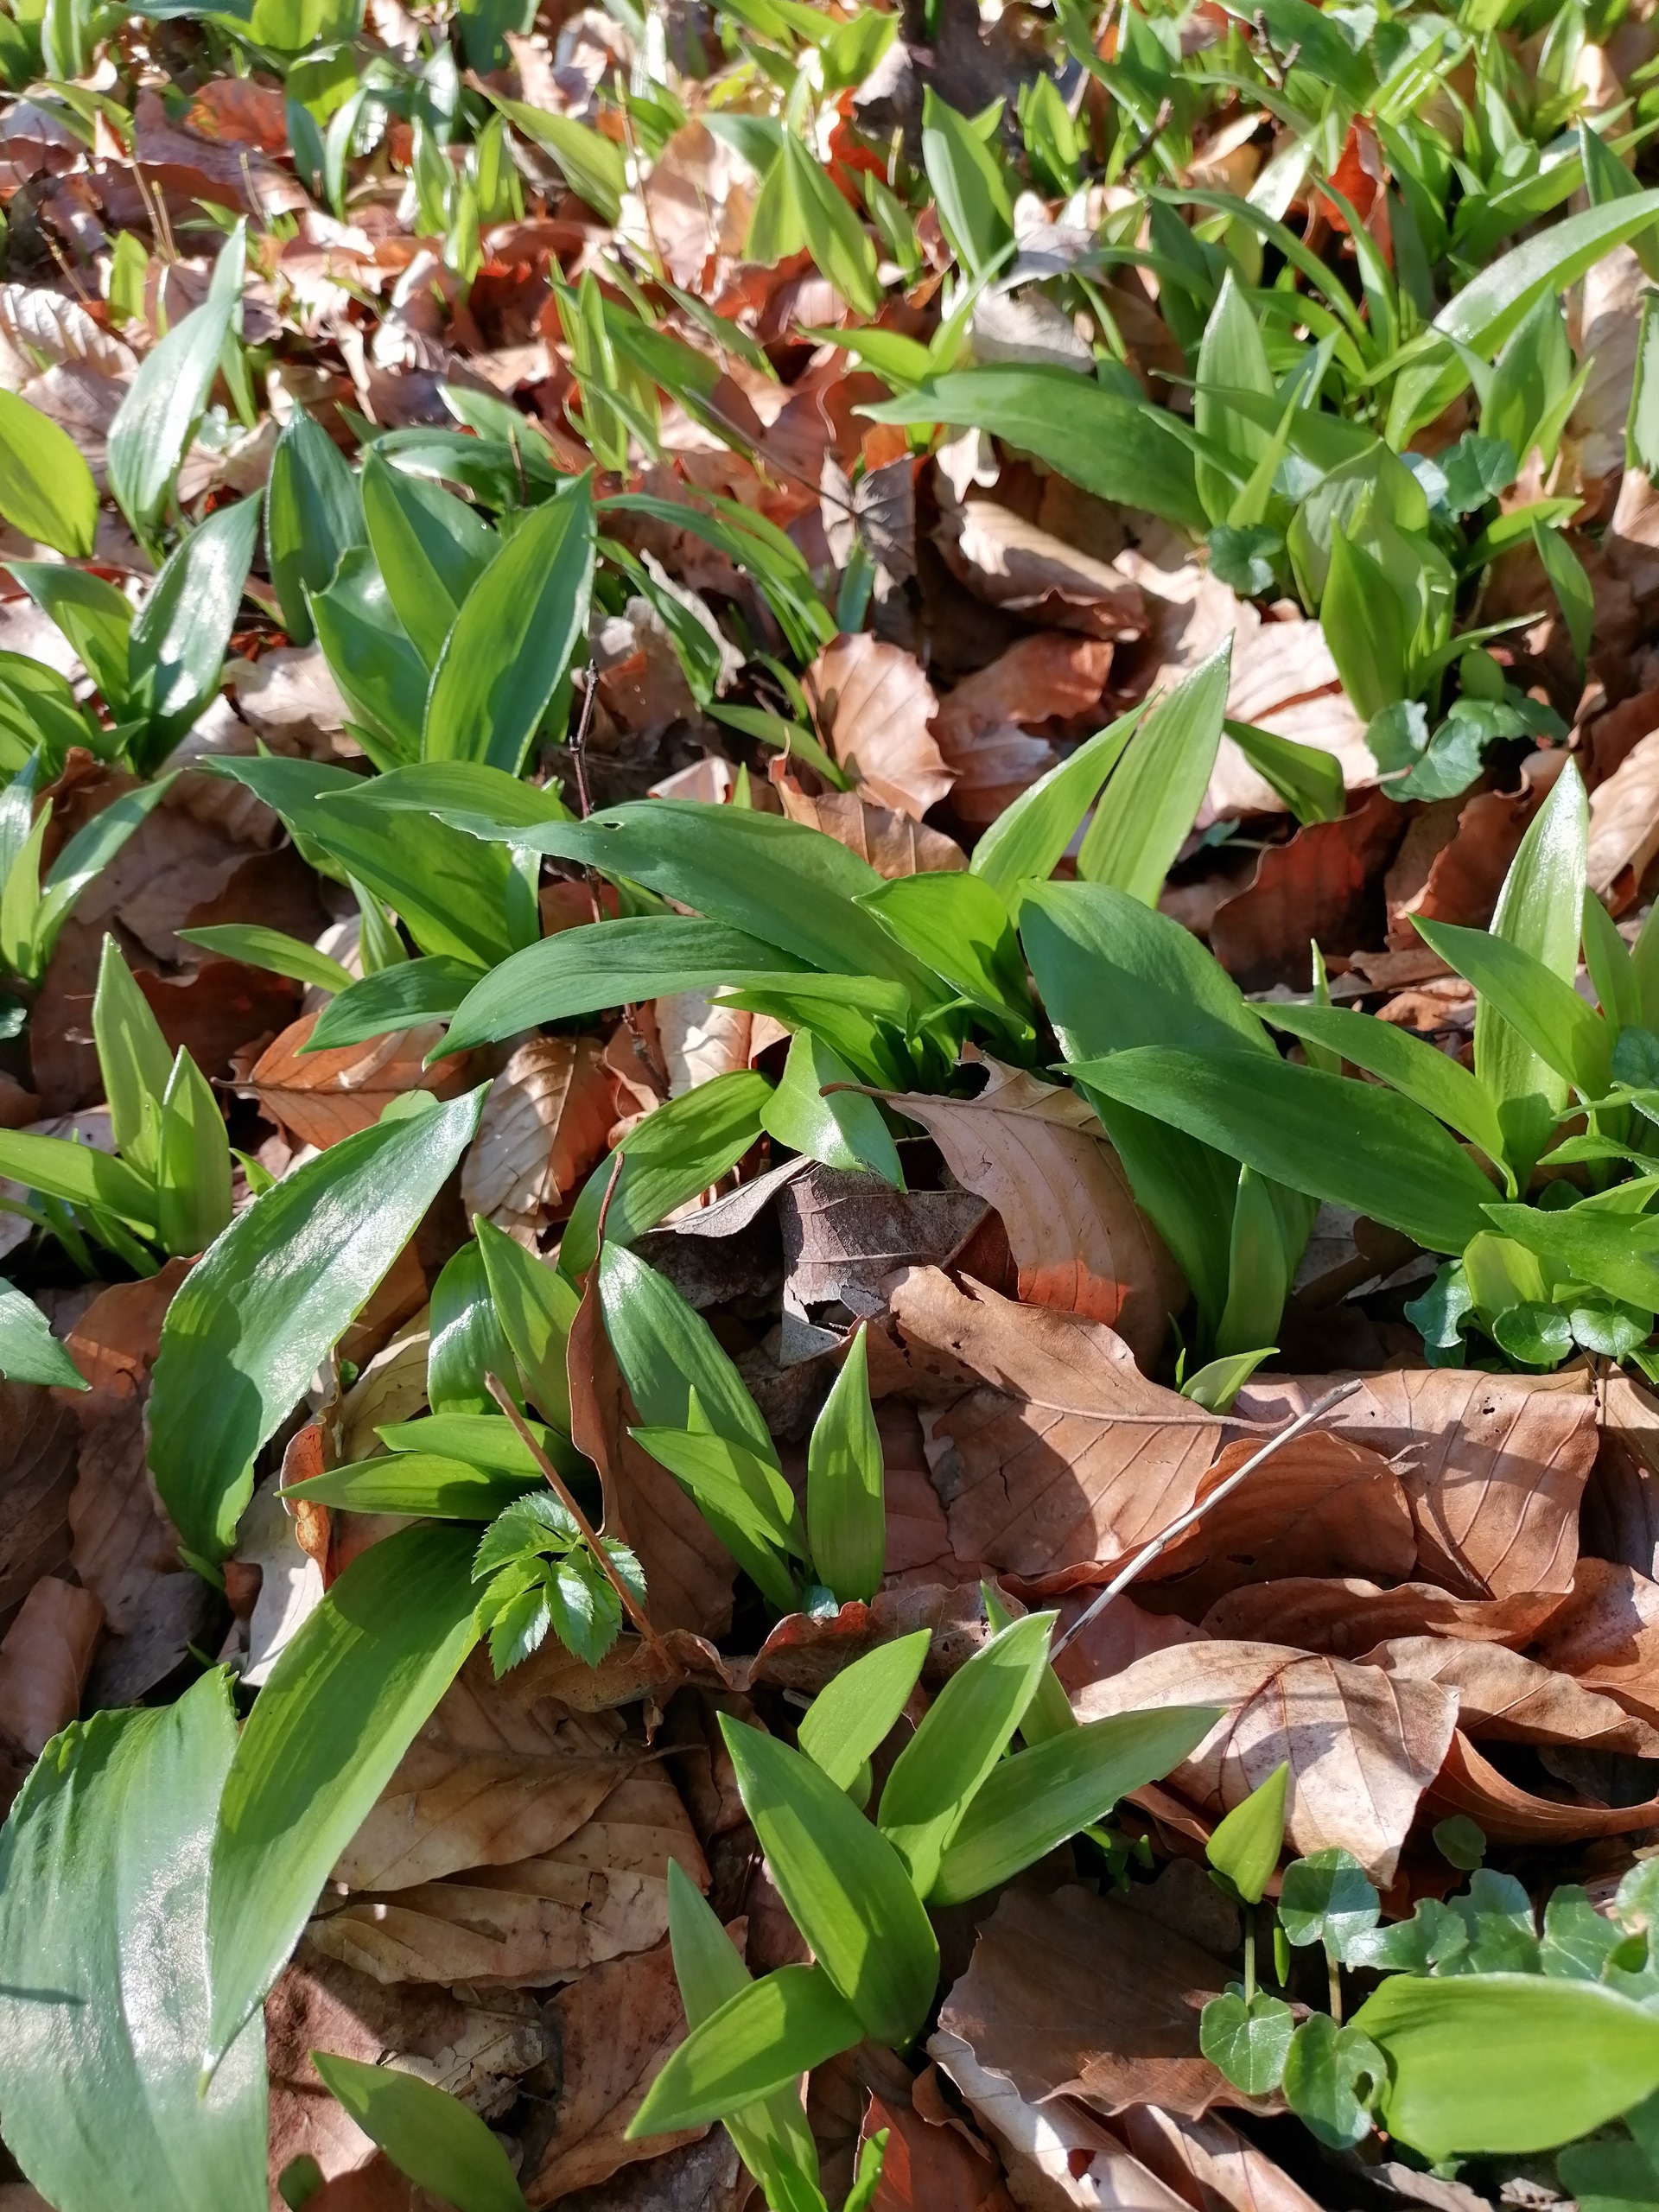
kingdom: Plantae
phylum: Tracheophyta
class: Liliopsida
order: Asparagales
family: Amaryllidaceae
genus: Allium
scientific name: Allium ursinum
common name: Rams-løg
